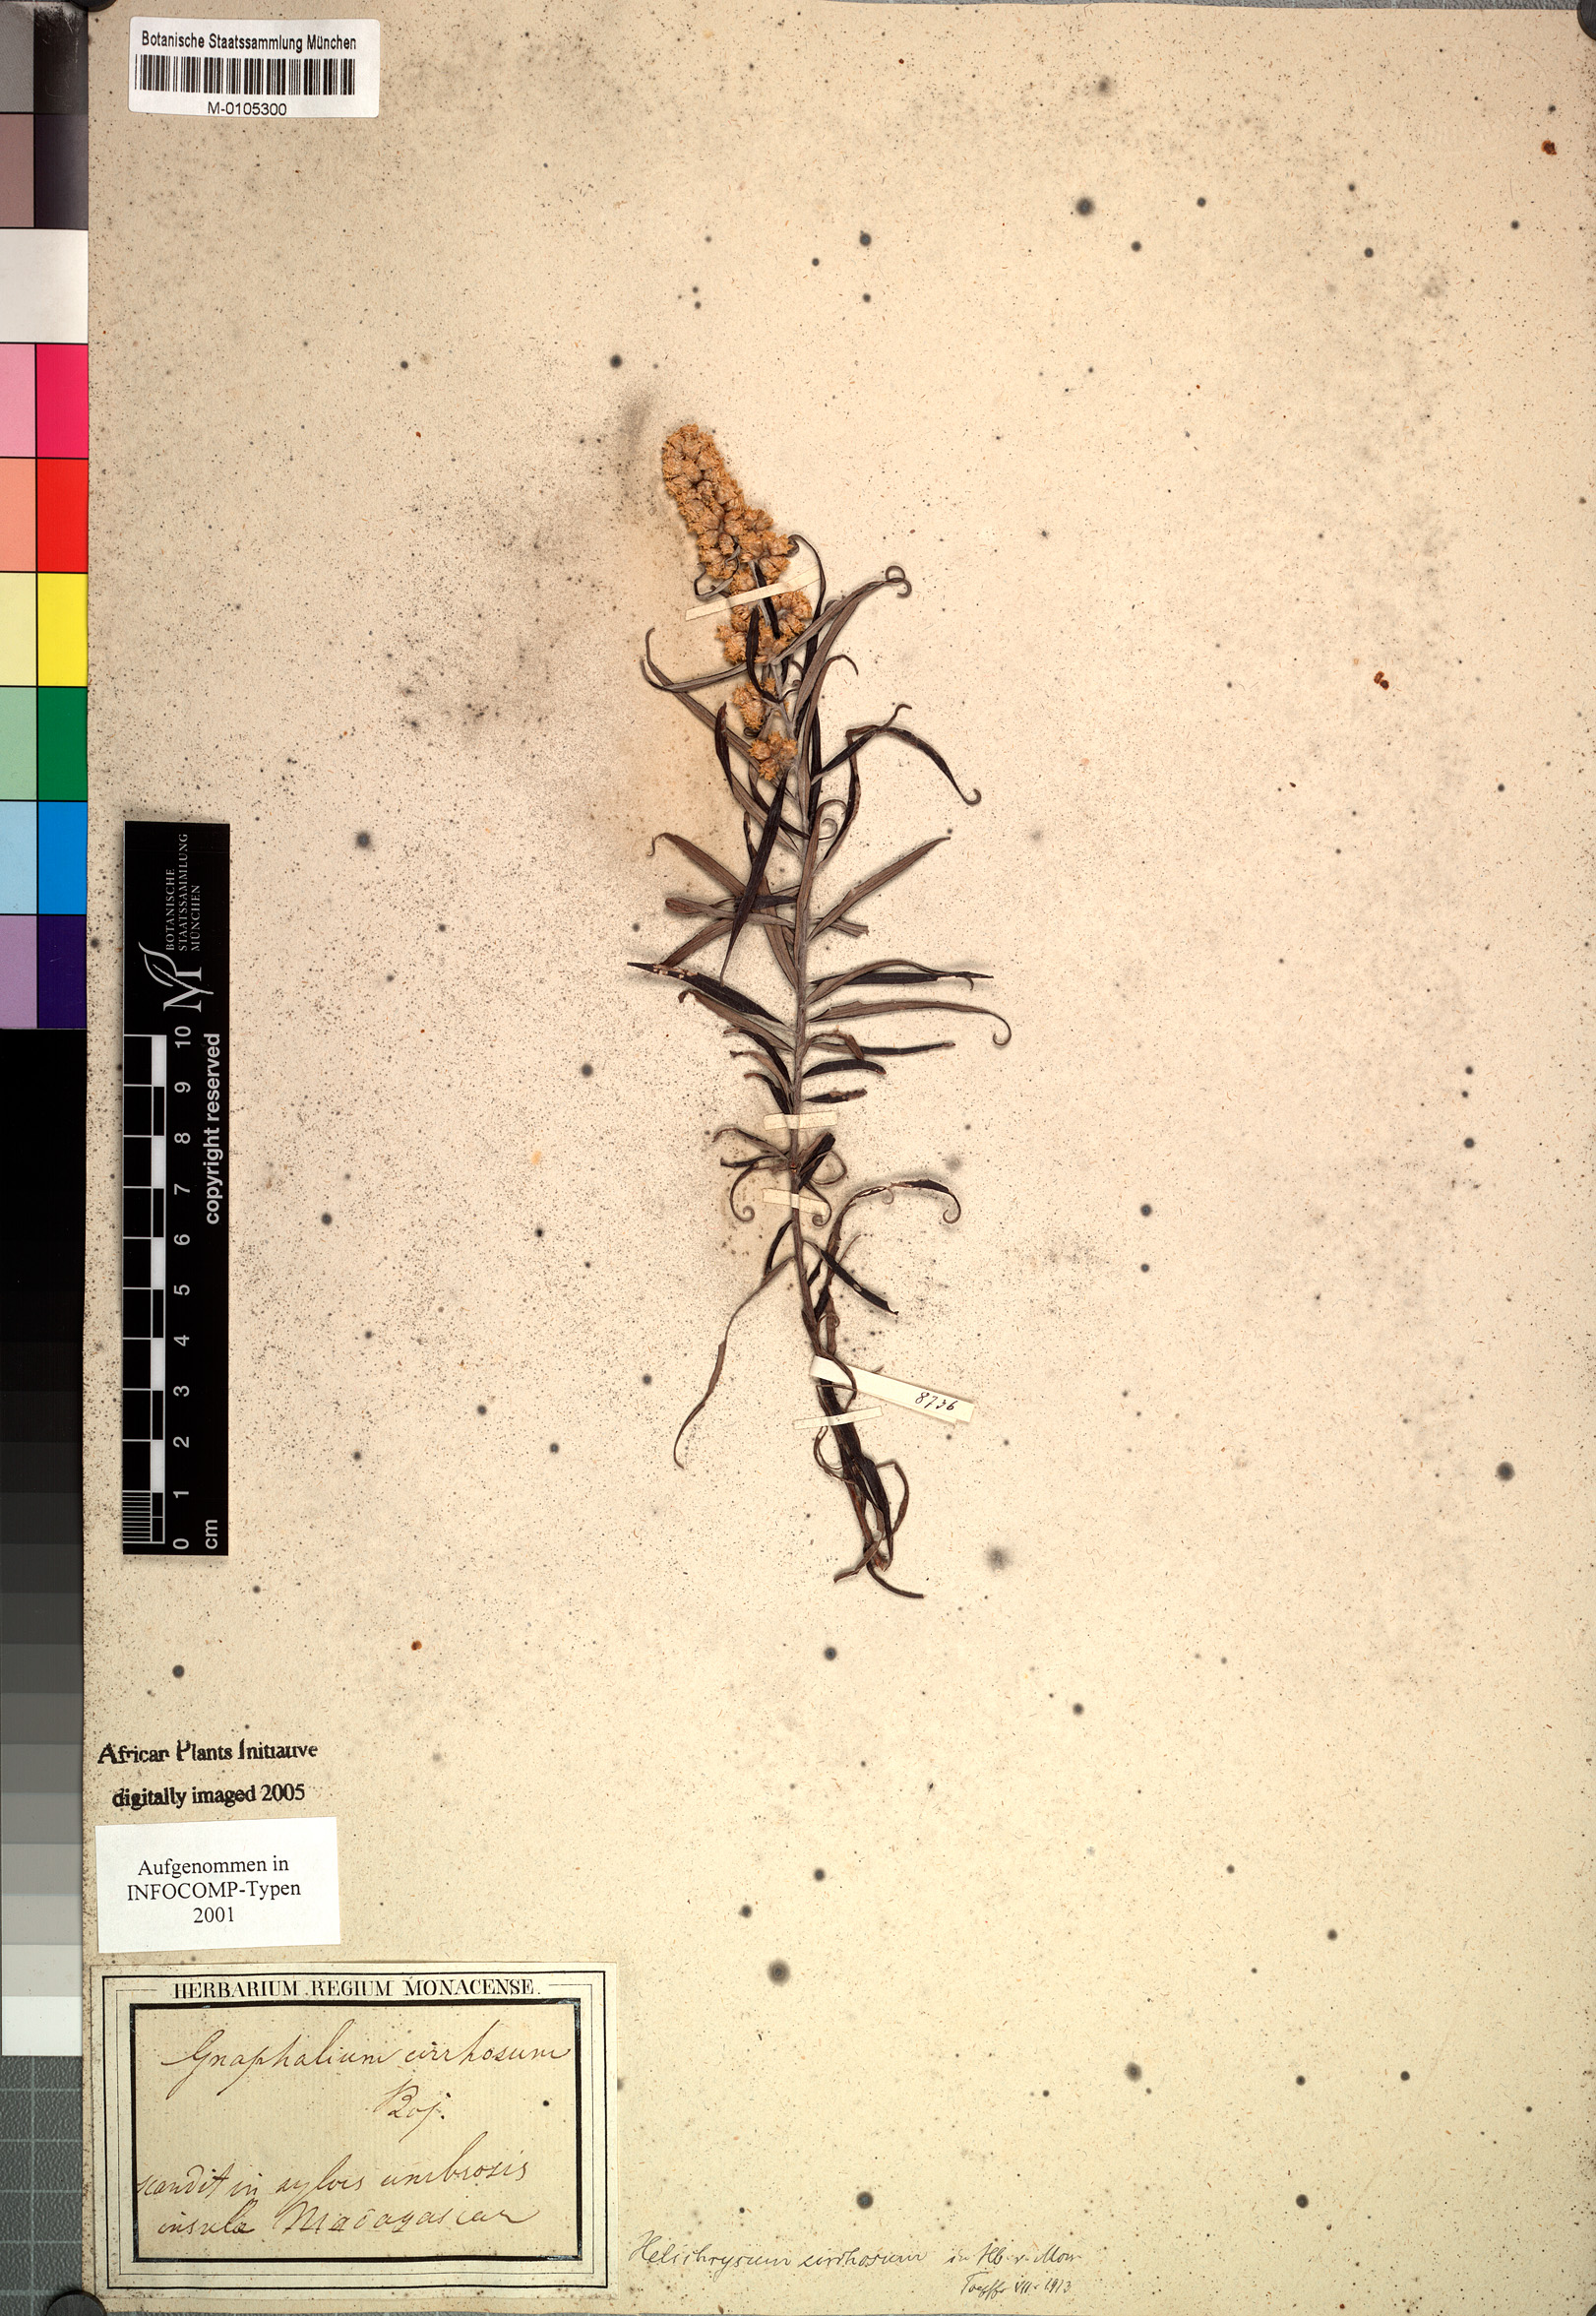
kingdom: Plantae
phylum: Tracheophyta
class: Magnoliopsida
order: Asterales
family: Asteraceae
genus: Helichrysum
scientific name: Helichrysum mutisiifolium
